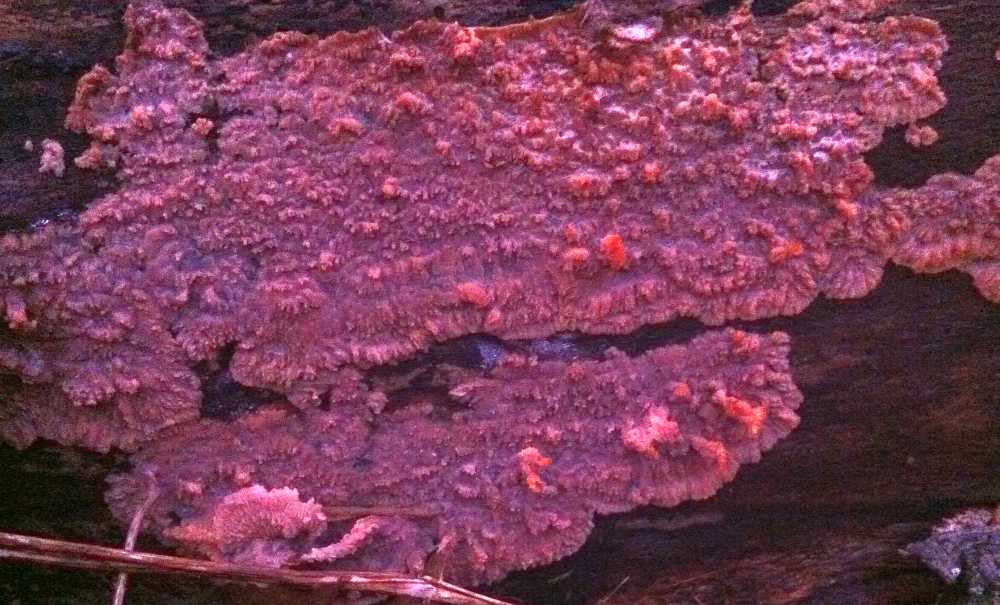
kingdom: Fungi
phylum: Basidiomycota
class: Agaricomycetes
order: Polyporales
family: Meruliaceae
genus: Phlebia
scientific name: Phlebia radiata
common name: stråle-åresvamp
